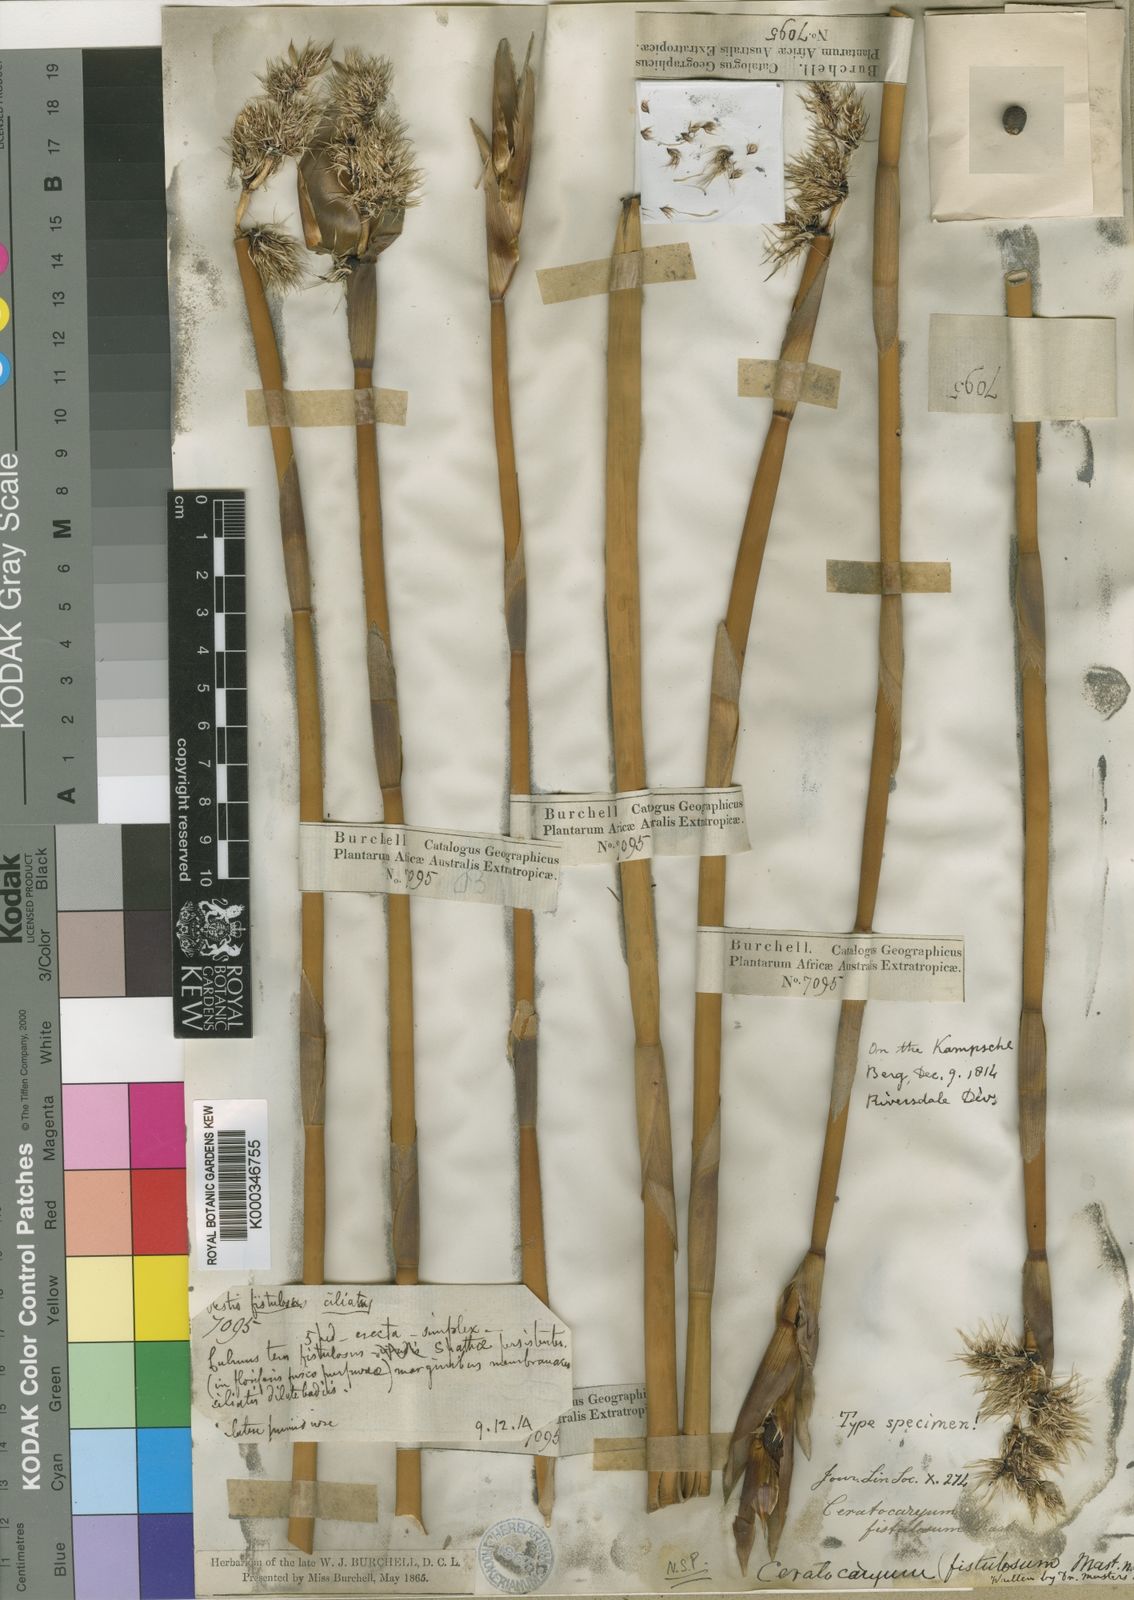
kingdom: Plantae
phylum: Tracheophyta
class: Liliopsida
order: Poales
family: Restionaceae
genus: Ceratocaryum
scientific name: Ceratocaryum
